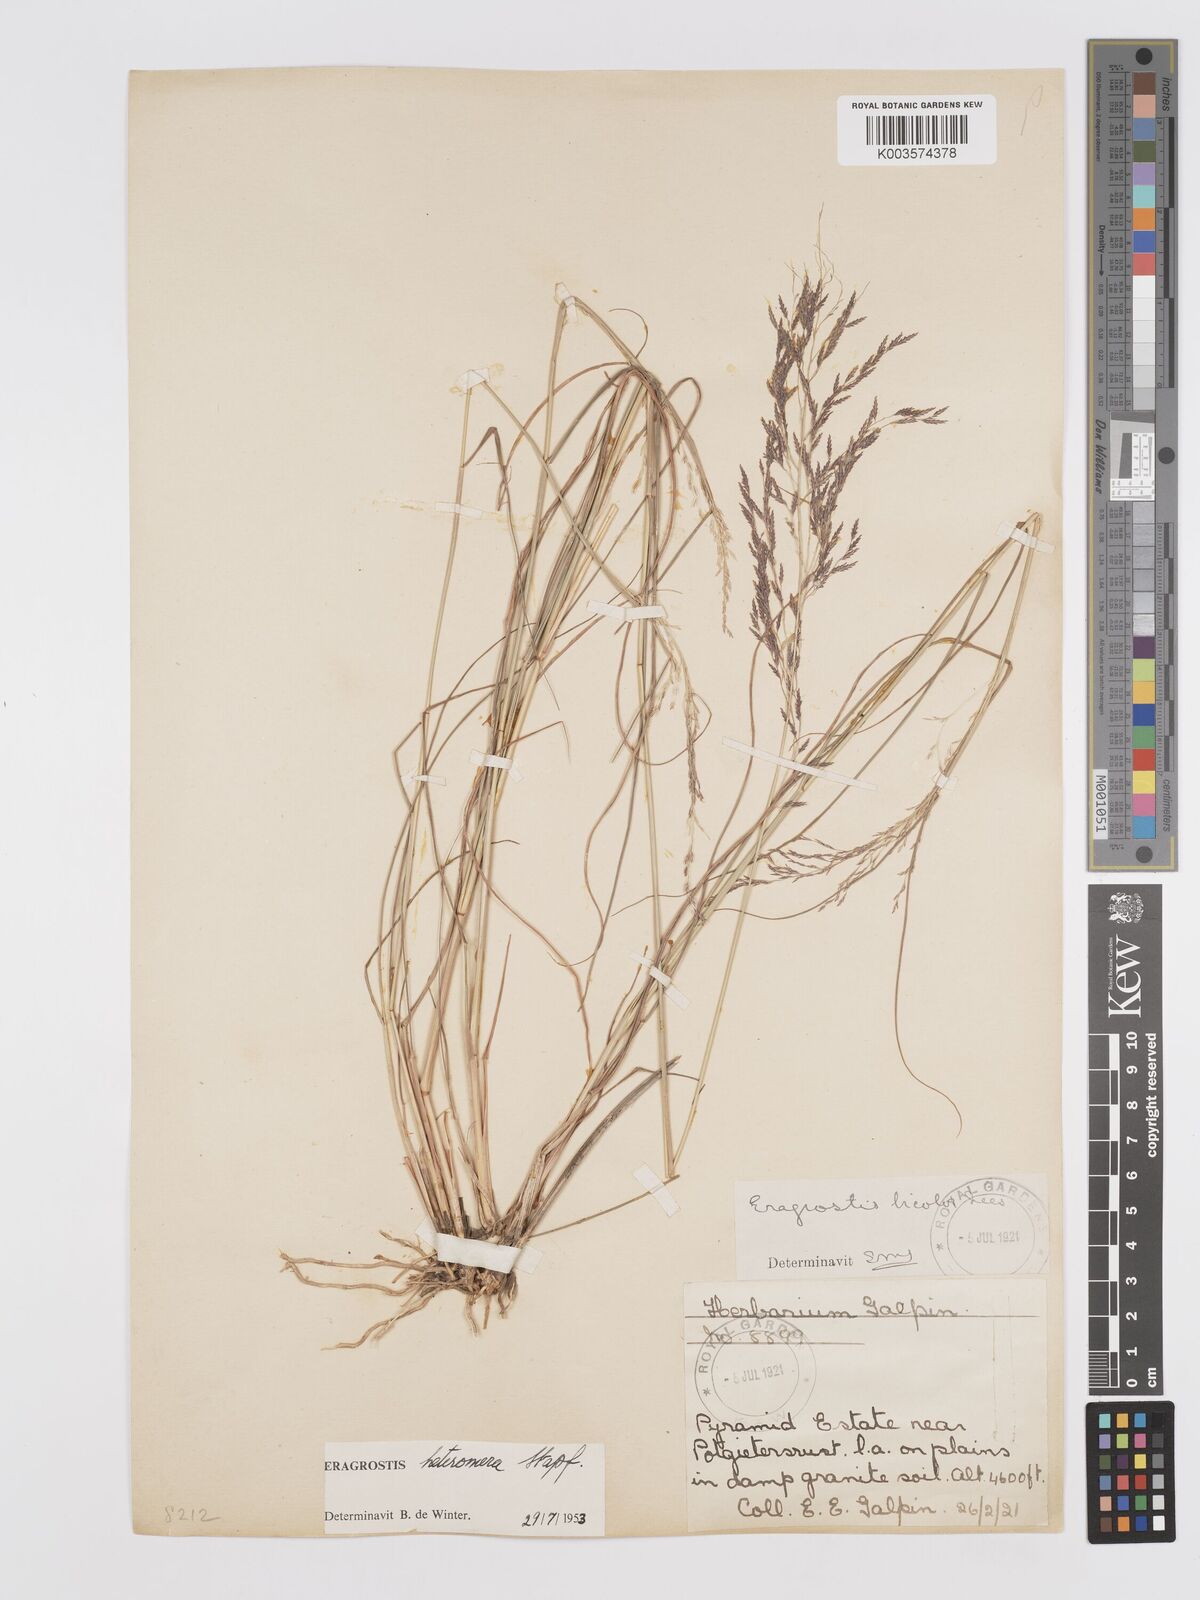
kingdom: Plantae
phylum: Tracheophyta
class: Liliopsida
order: Poales
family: Poaceae
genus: Eragrostis
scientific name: Eragrostis heteromera
